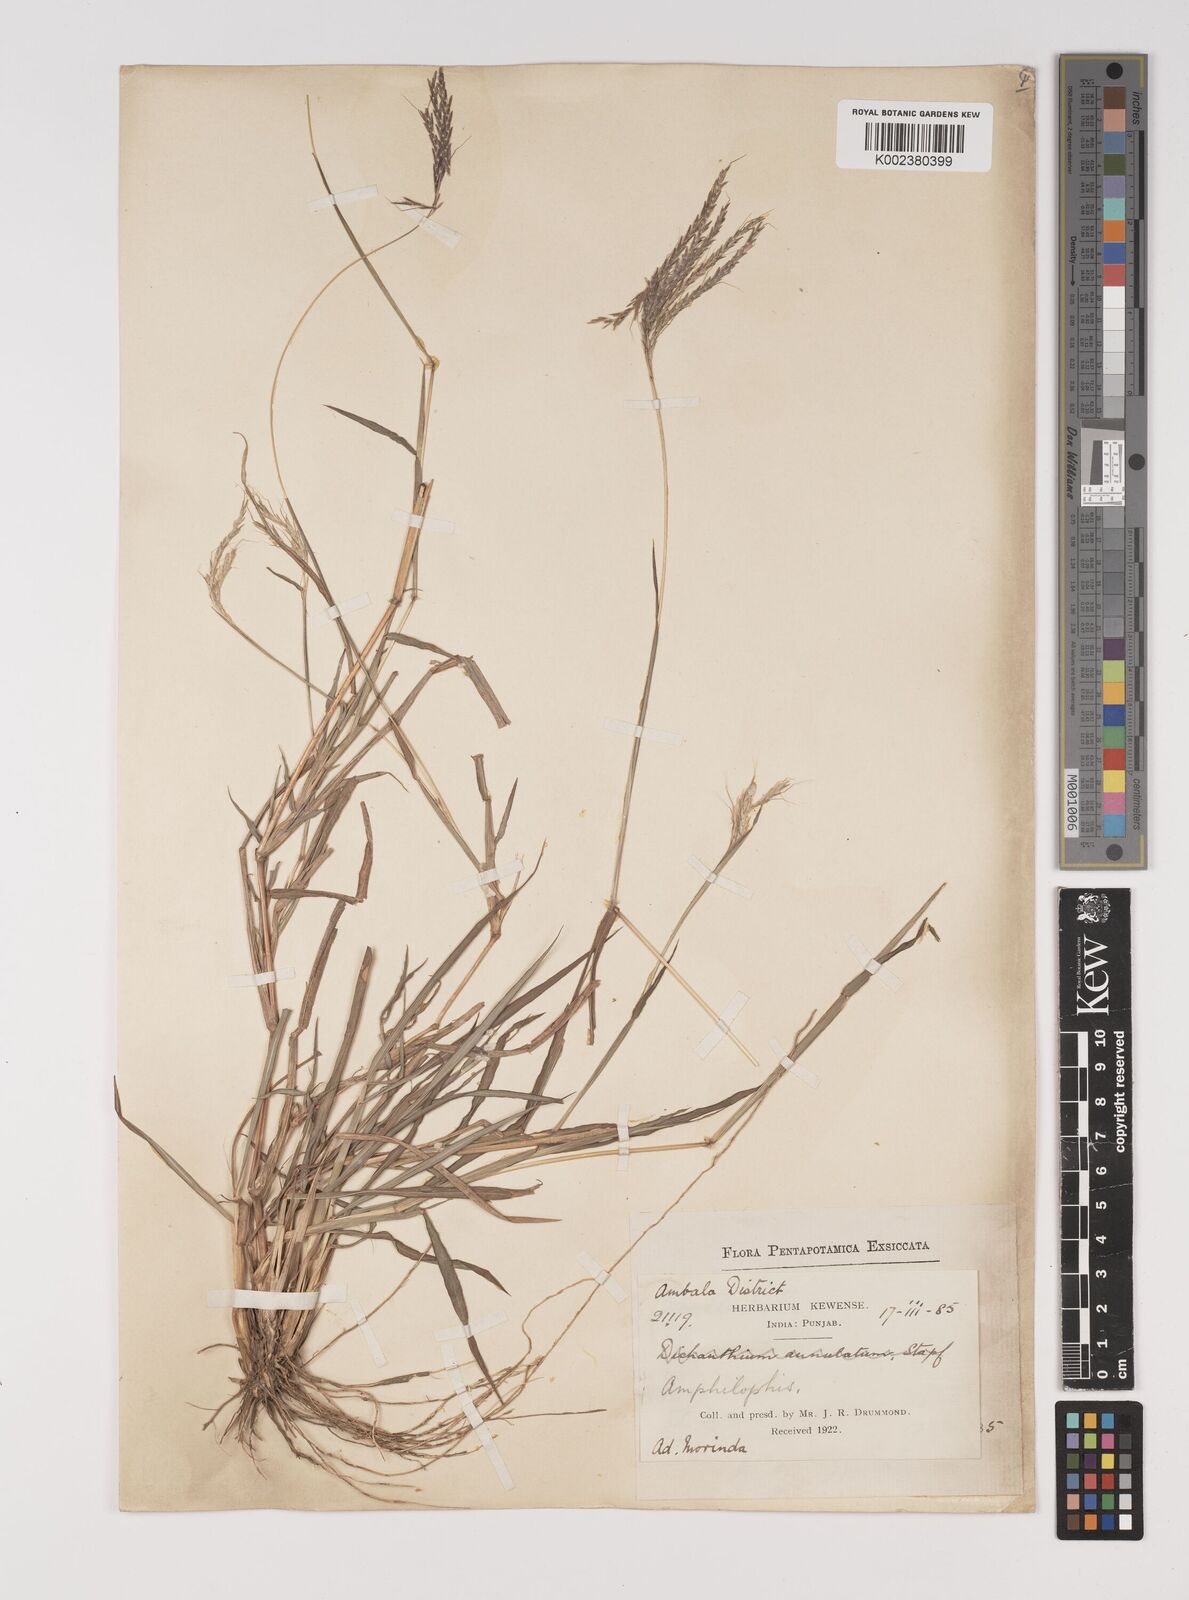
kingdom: Plantae
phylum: Tracheophyta
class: Liliopsida
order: Poales
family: Poaceae
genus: Bothriochloa
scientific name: Bothriochloa pertusa
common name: Pitted beardgrass
